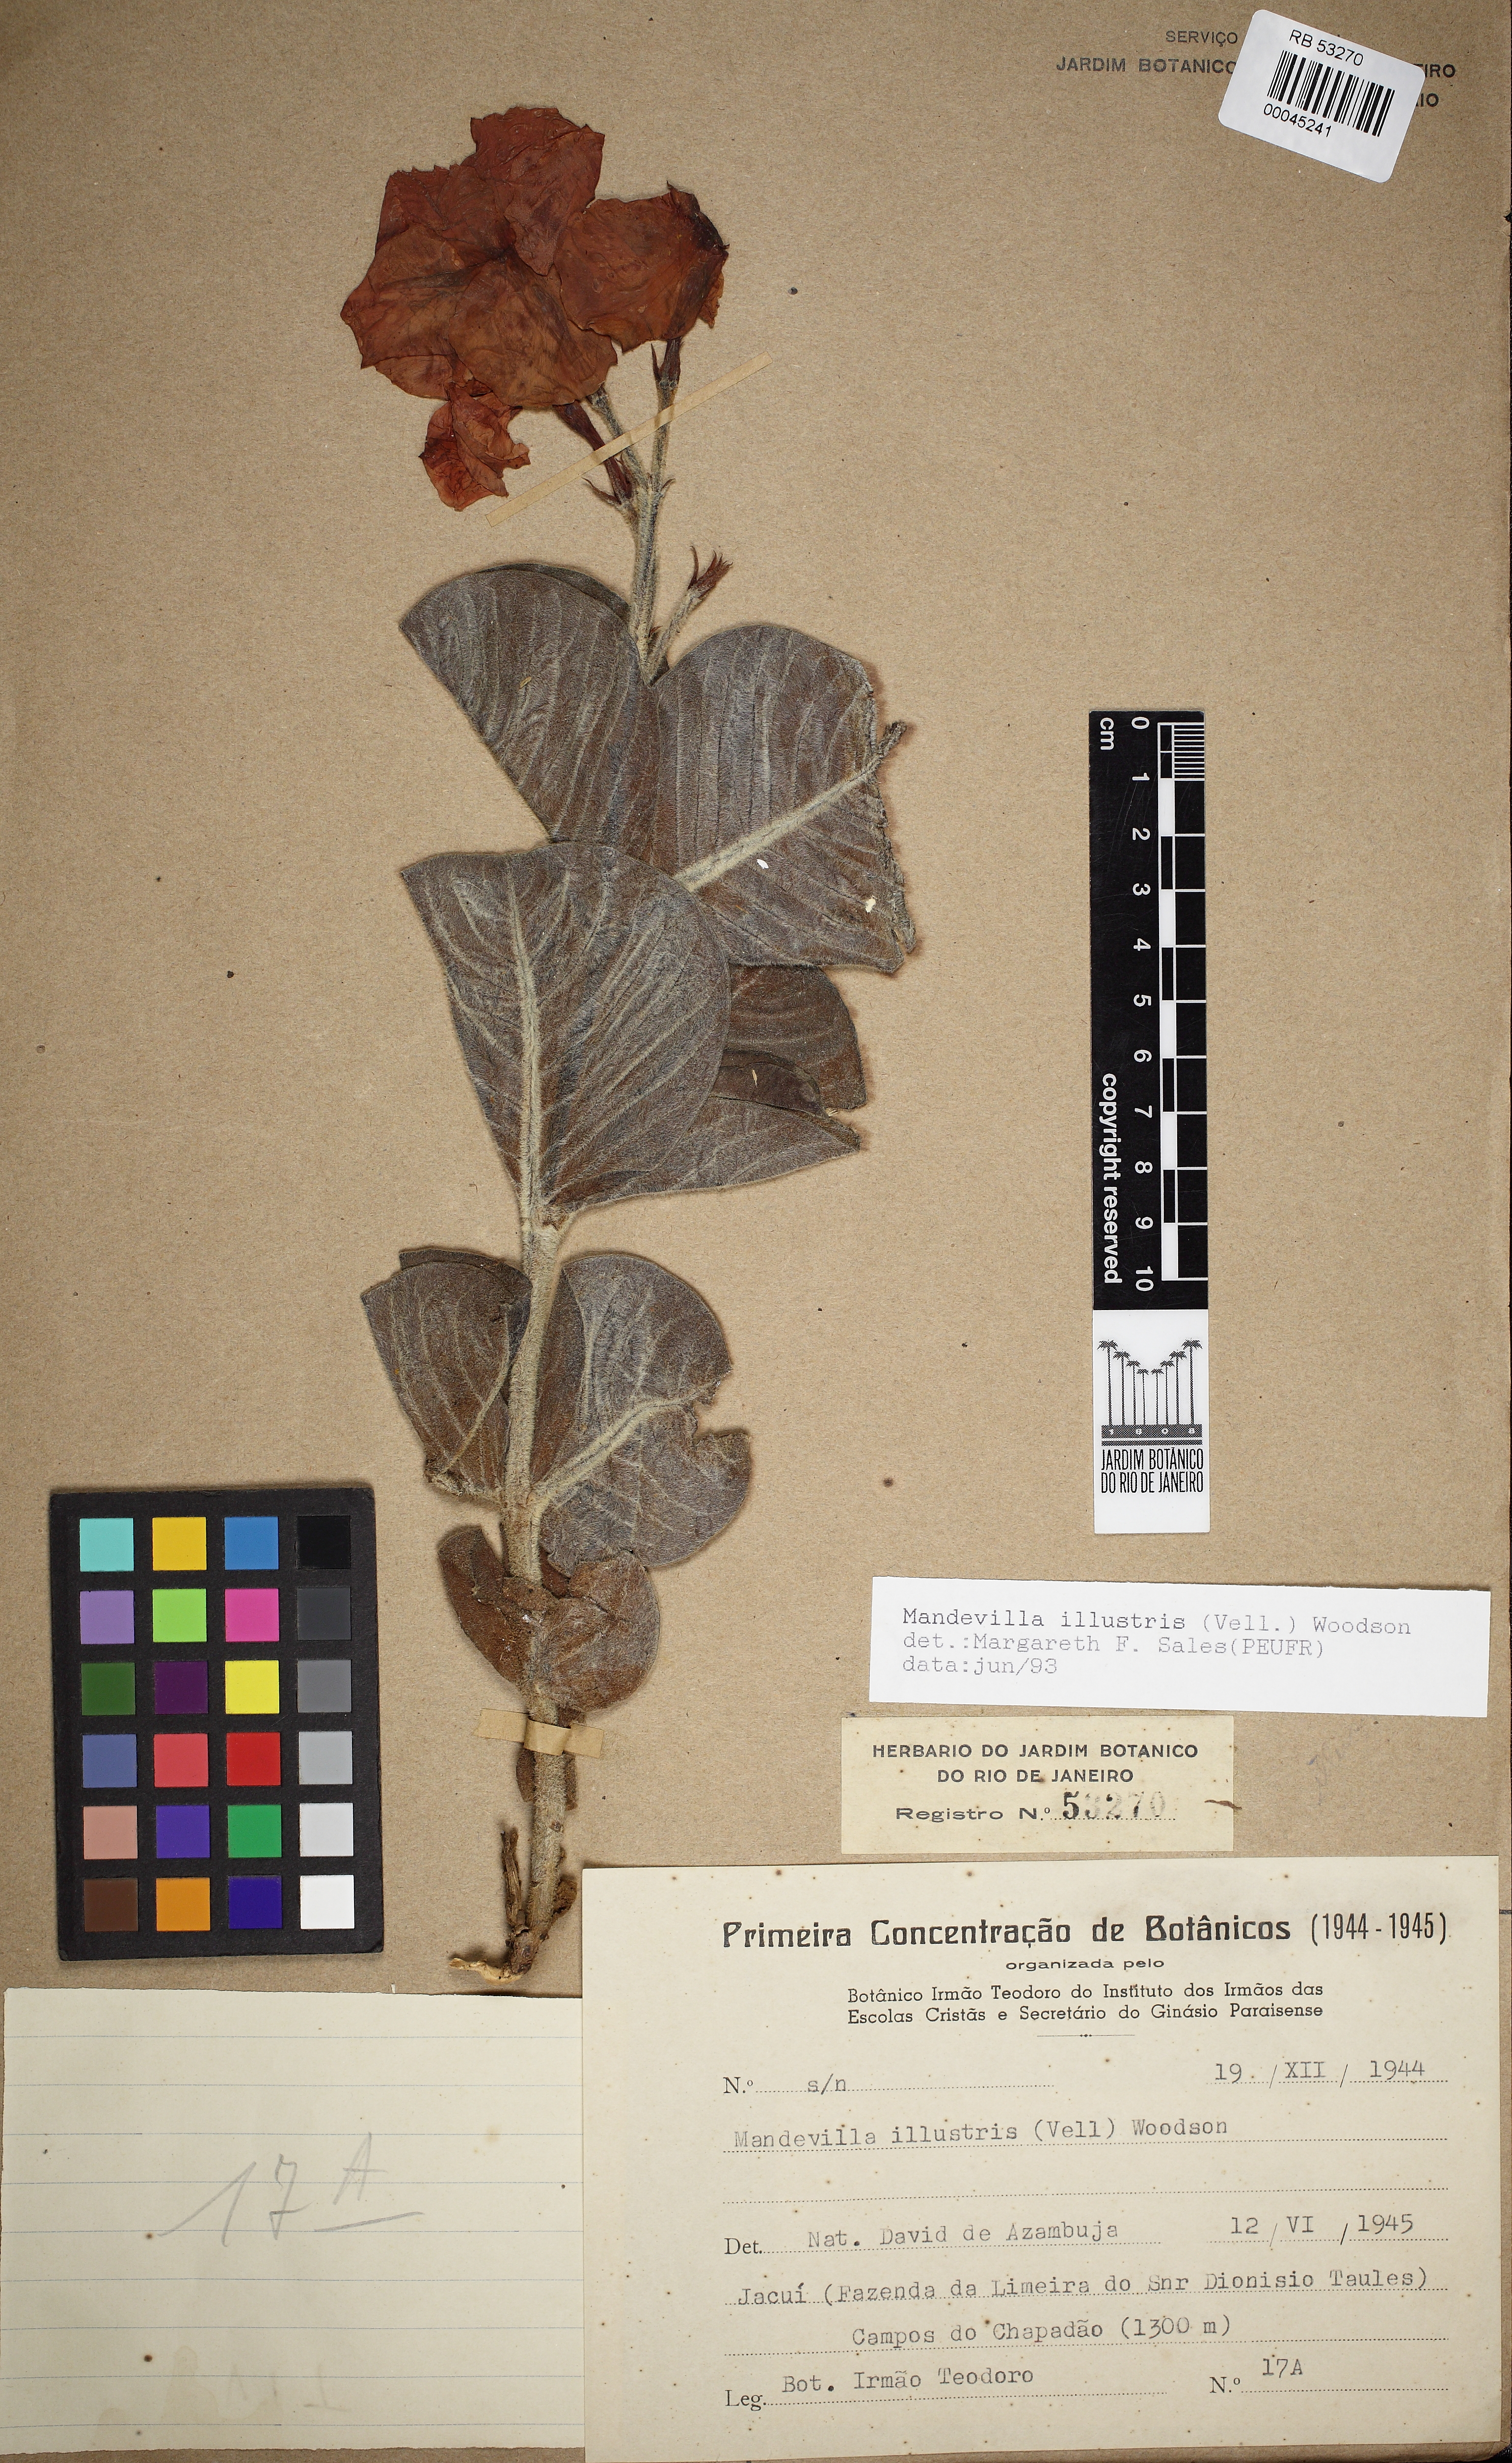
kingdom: Plantae
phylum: Tracheophyta
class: Magnoliopsida
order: Gentianales
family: Apocynaceae
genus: Mandevilla
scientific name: Mandevilla illustris
